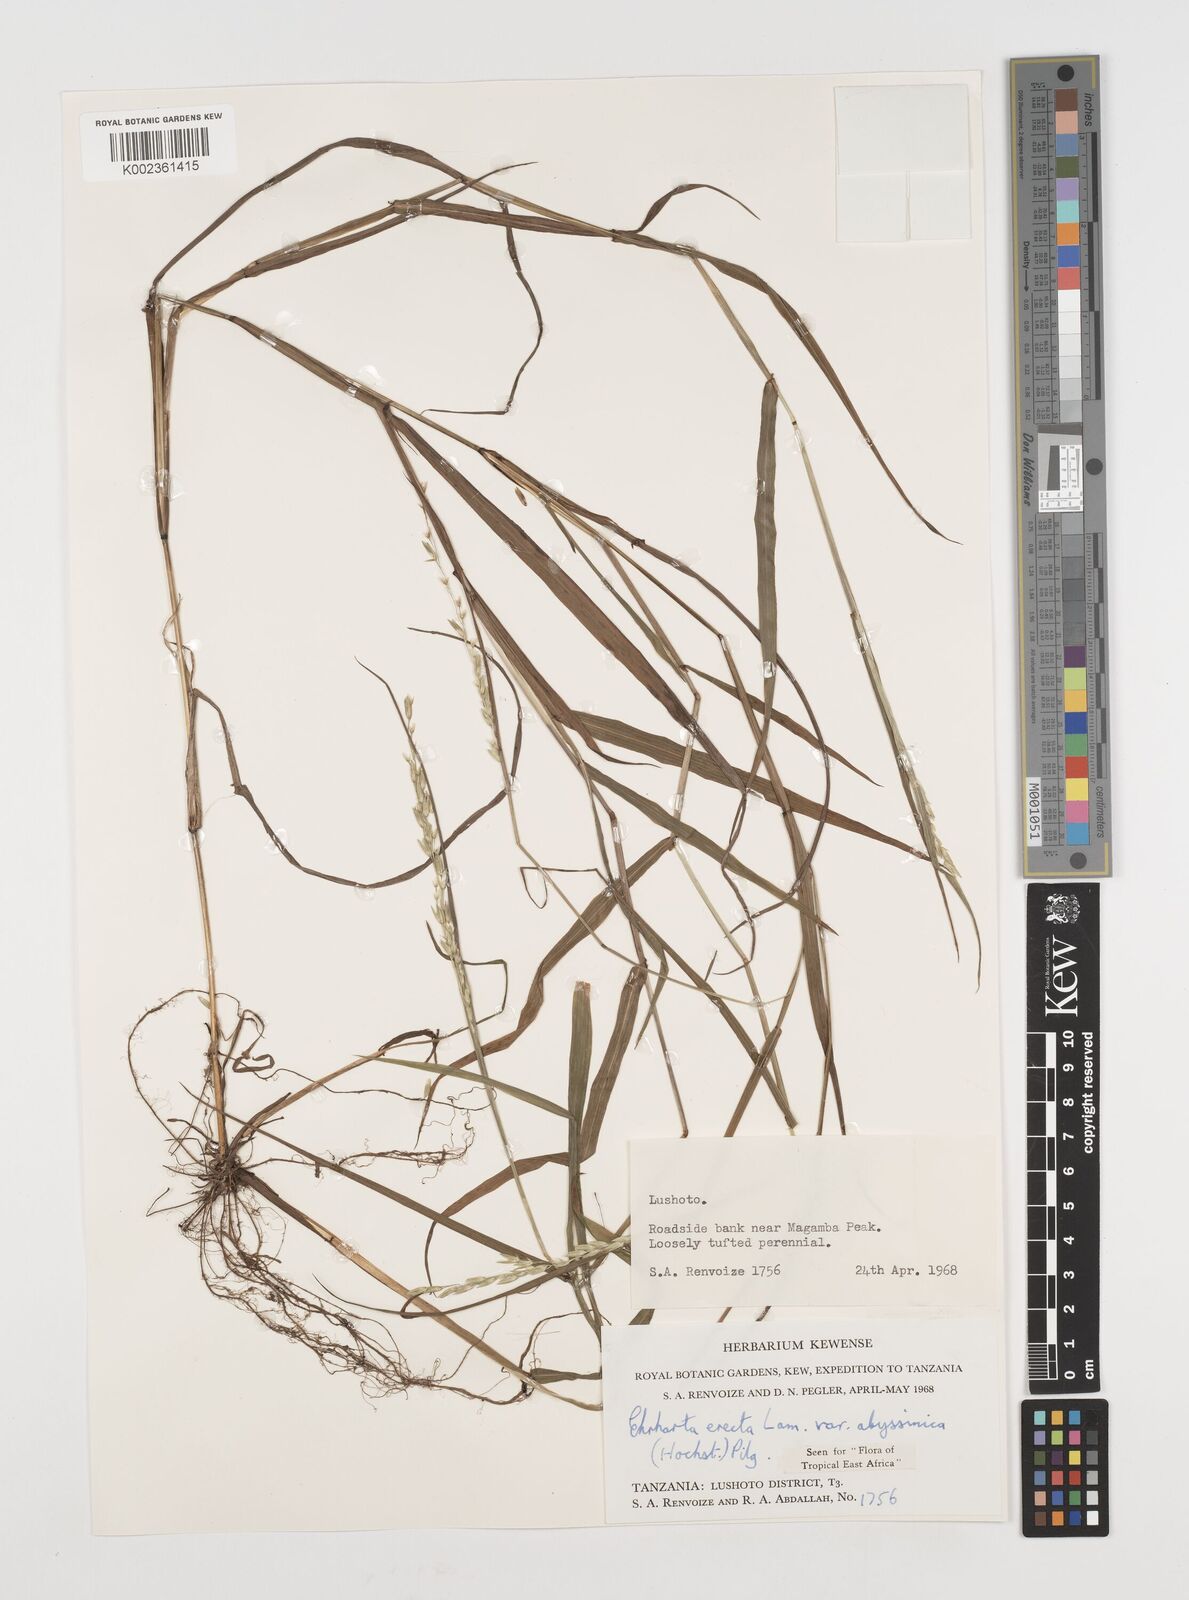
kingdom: Plantae
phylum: Tracheophyta
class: Liliopsida
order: Poales
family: Poaceae
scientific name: Poaceae
